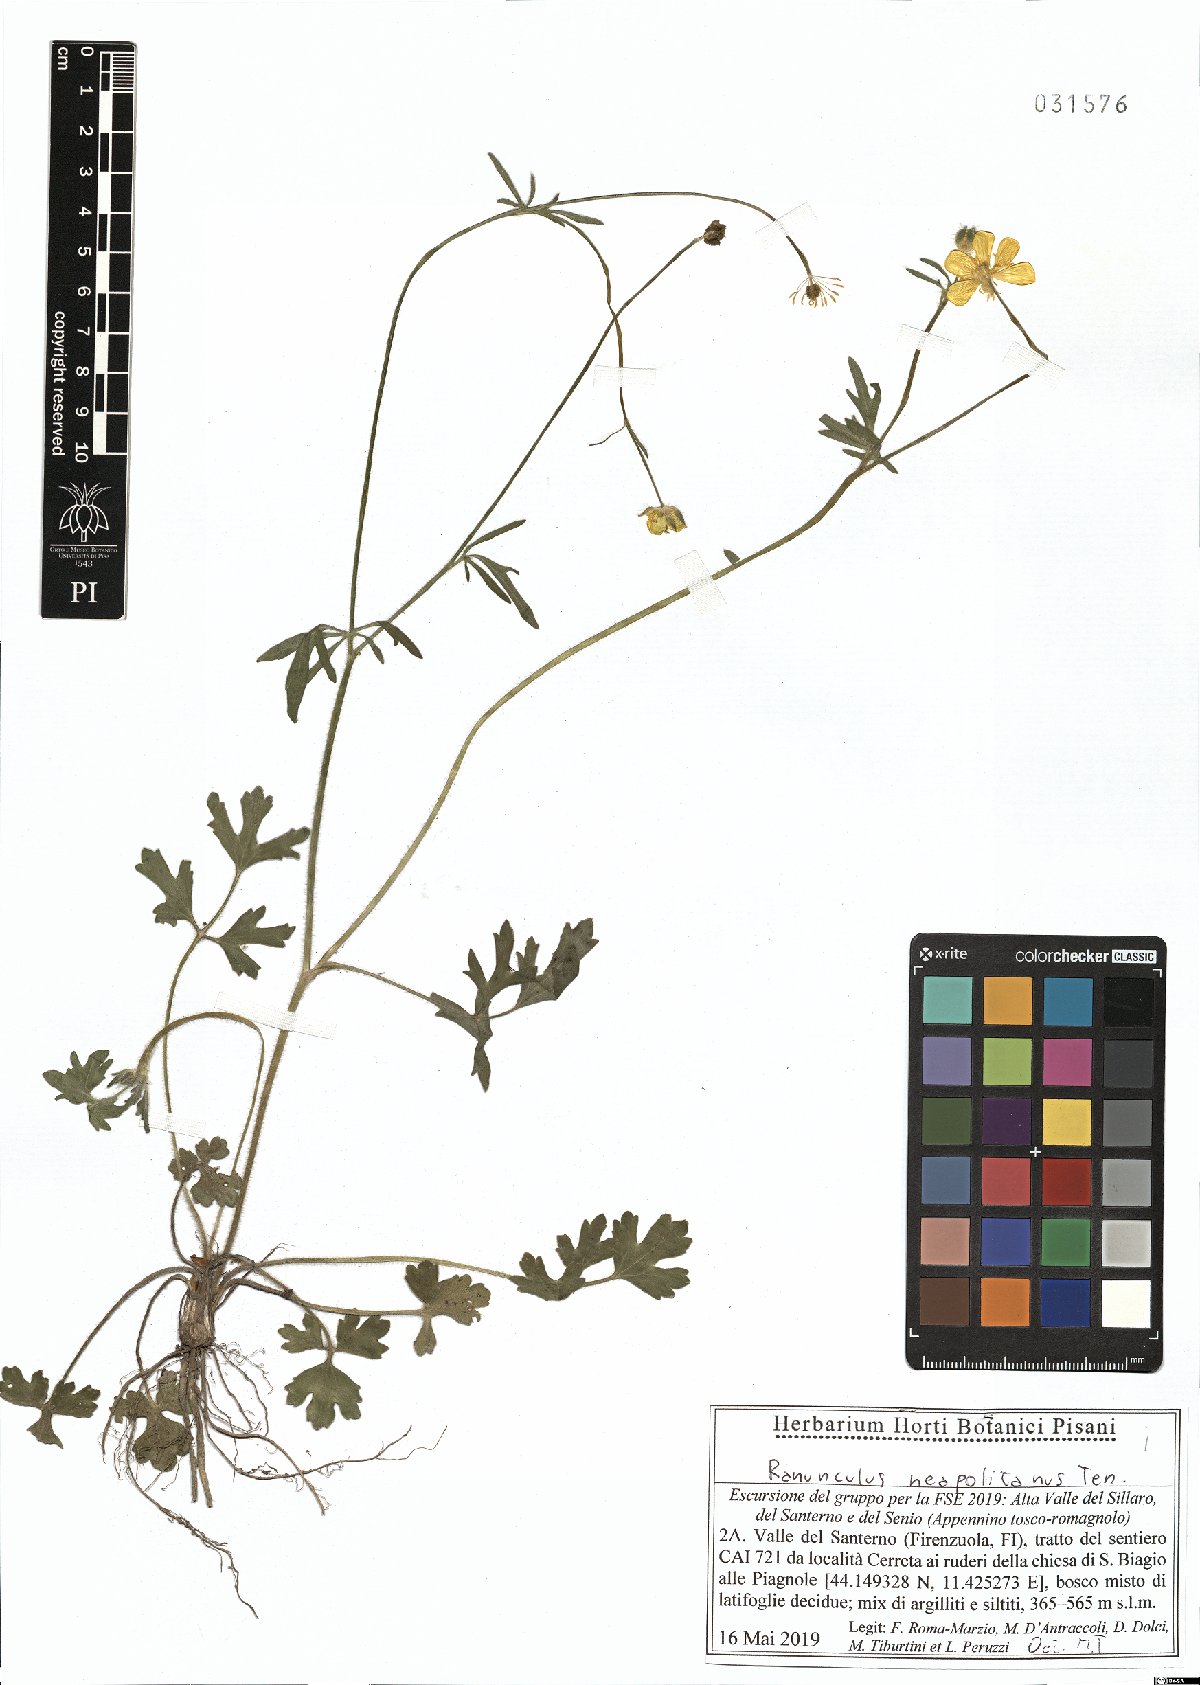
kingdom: Plantae
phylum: Tracheophyta
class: Magnoliopsida
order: Ranunculales
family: Ranunculaceae
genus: Ranunculus
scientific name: Ranunculus neapolitanus
